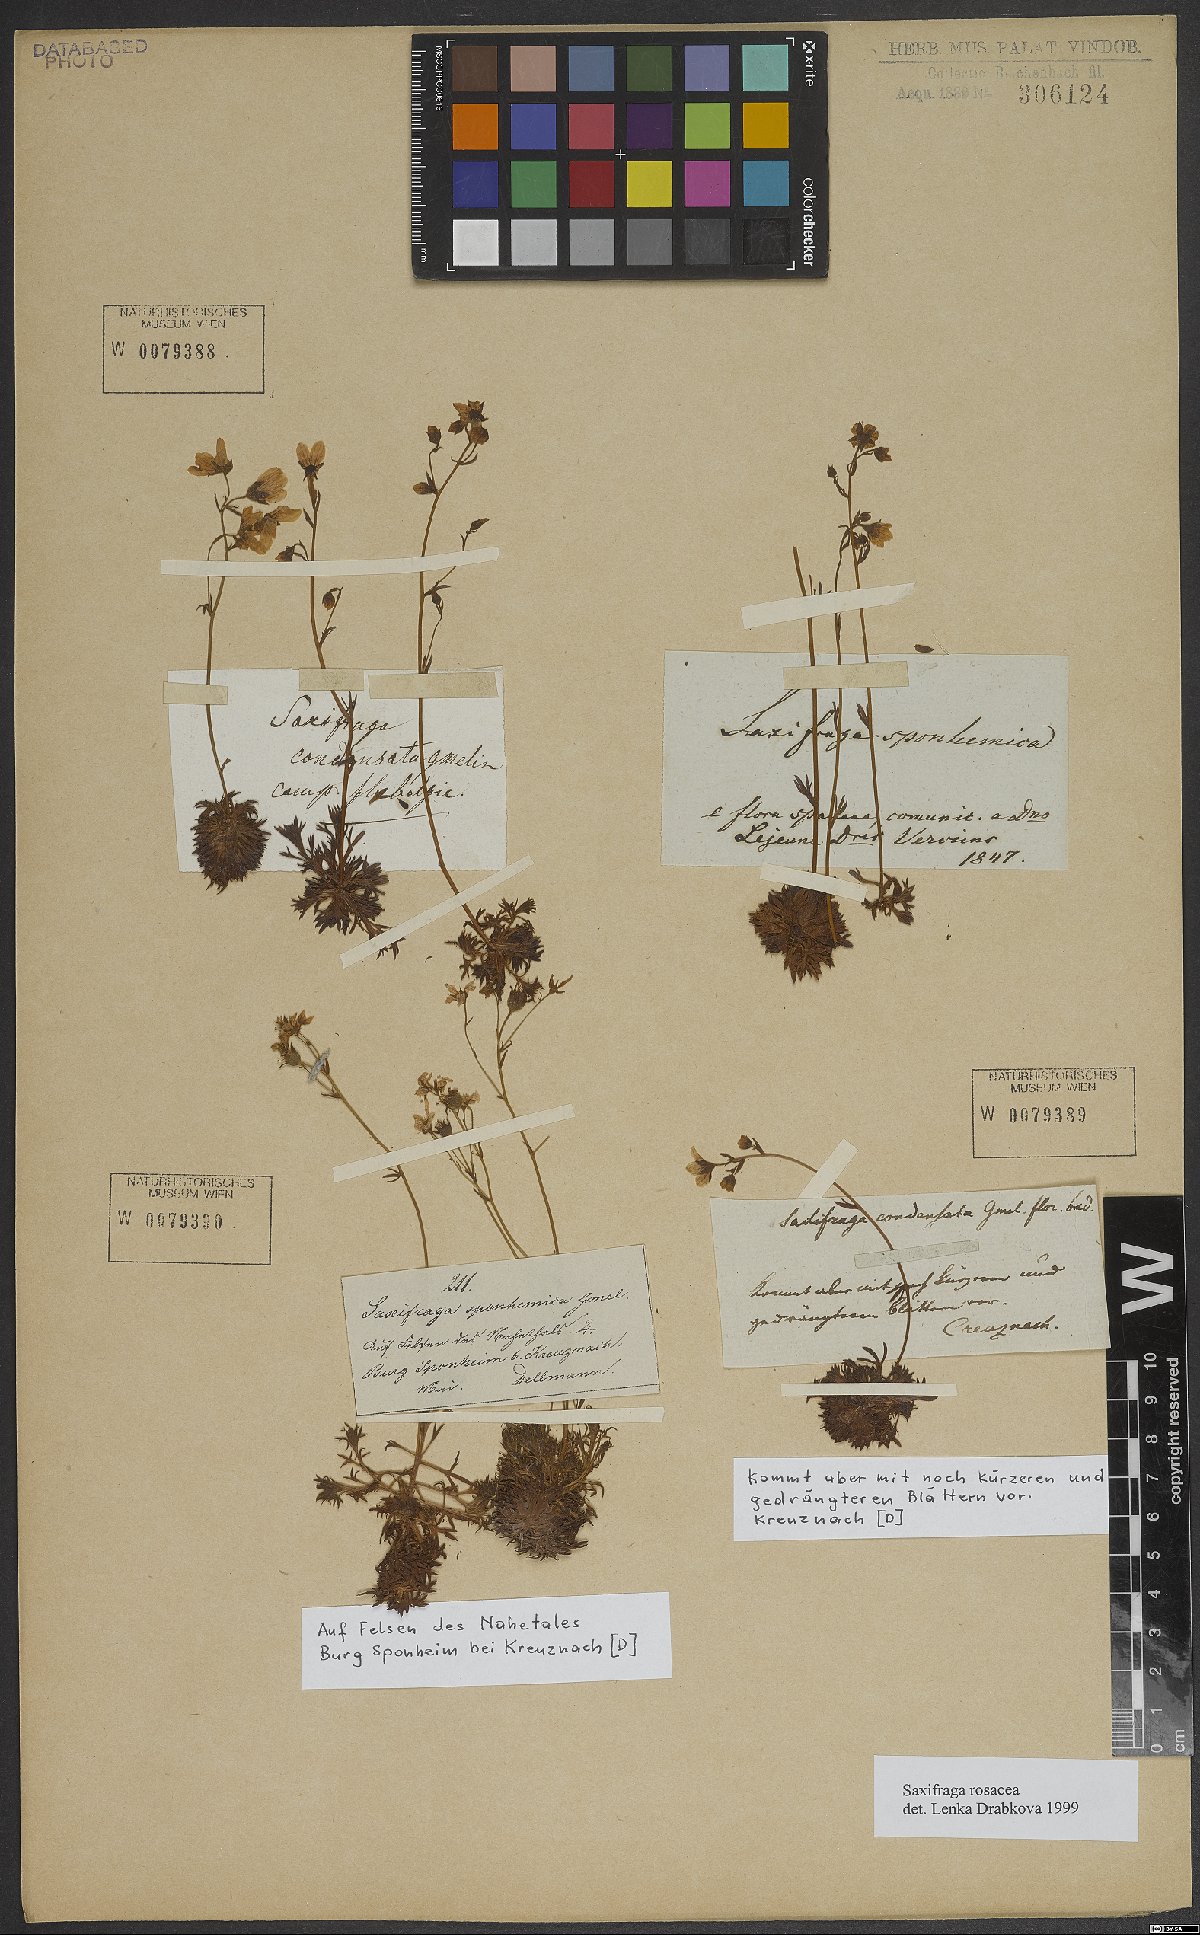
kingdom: Plantae
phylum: Tracheophyta
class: Magnoliopsida
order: Saxifragales
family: Saxifragaceae
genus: Saxifraga
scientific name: Saxifraga rosacea
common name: Irish saxifrage
